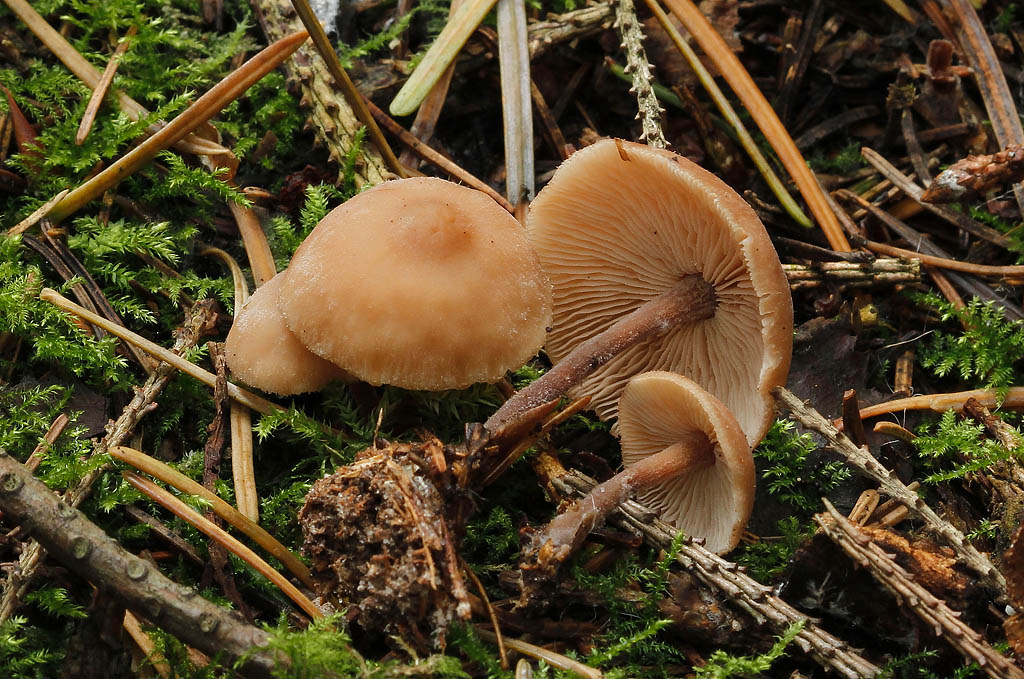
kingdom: Fungi
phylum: Basidiomycota
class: Agaricomycetes
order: Agaricales
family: Omphalotaceae
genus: Collybiopsis
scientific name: Collybiopsis confluens
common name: knippe-fladhat
